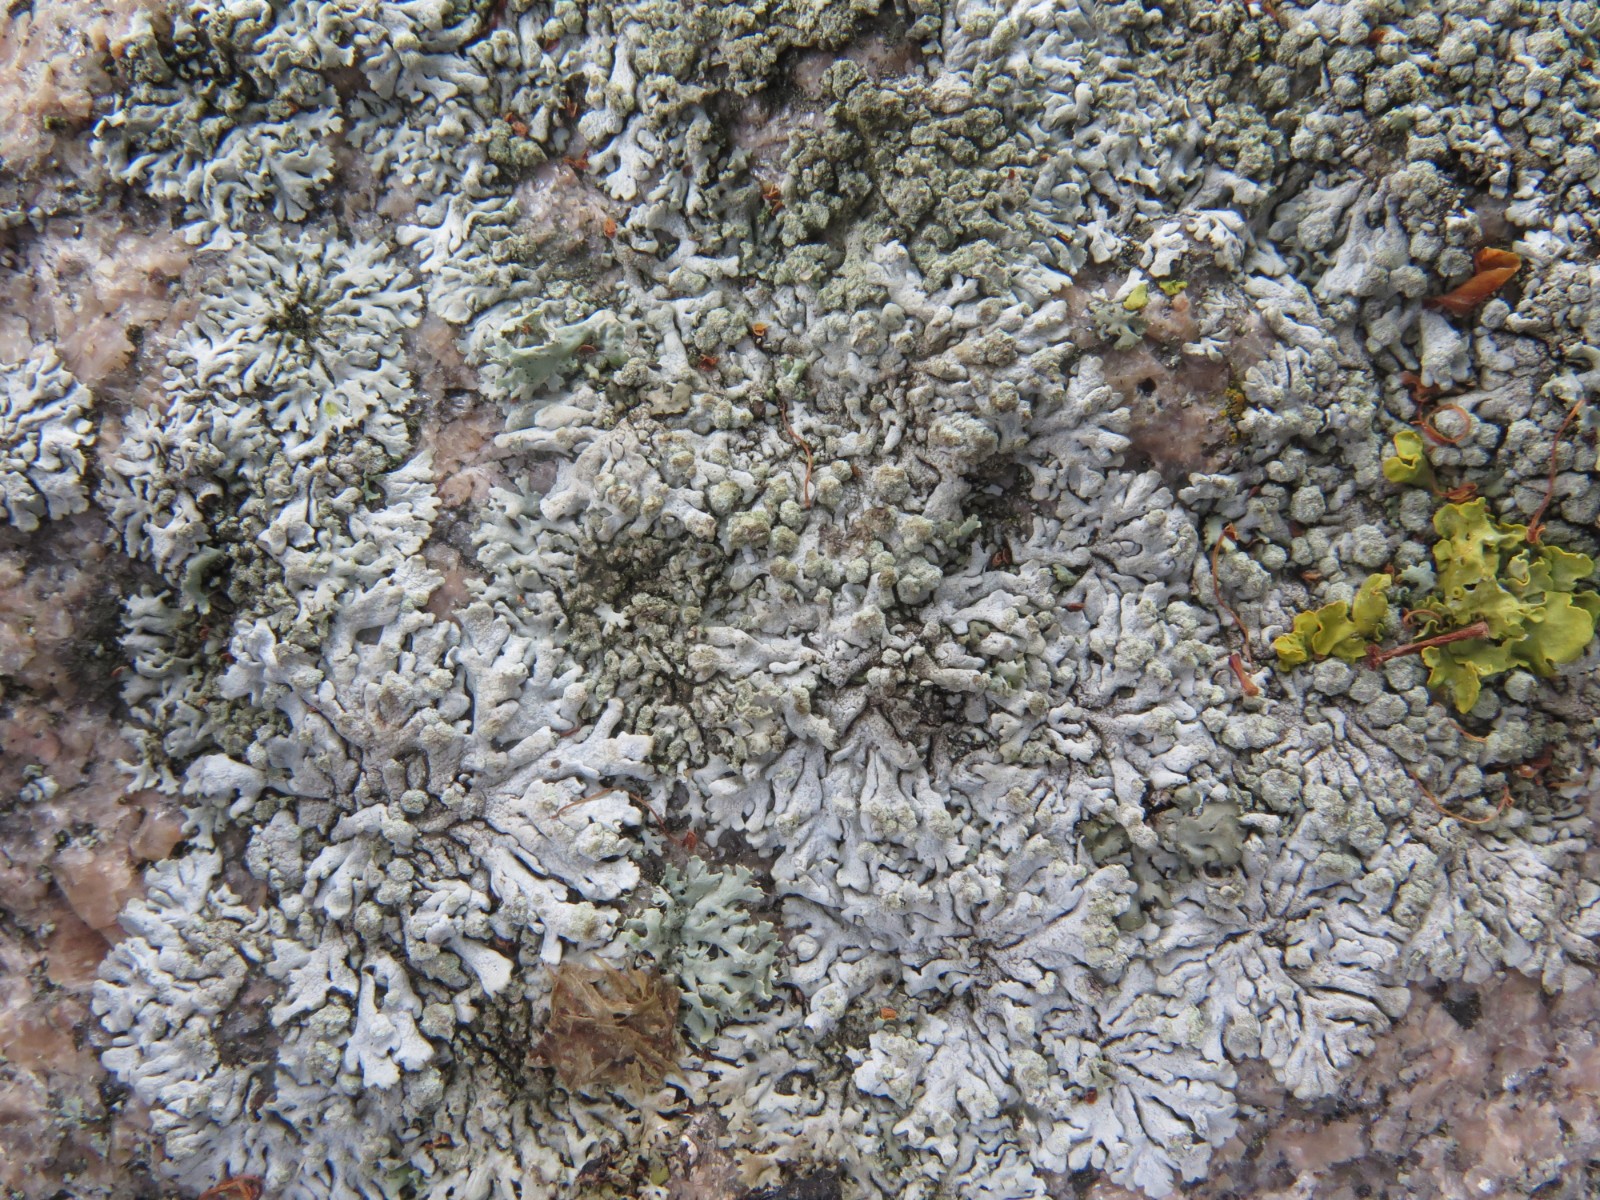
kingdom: Fungi
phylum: Ascomycota
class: Lecanoromycetes
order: Caliciales
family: Physciaceae
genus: Physcia
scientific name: Physcia caesia
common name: blågrå rosetlav
